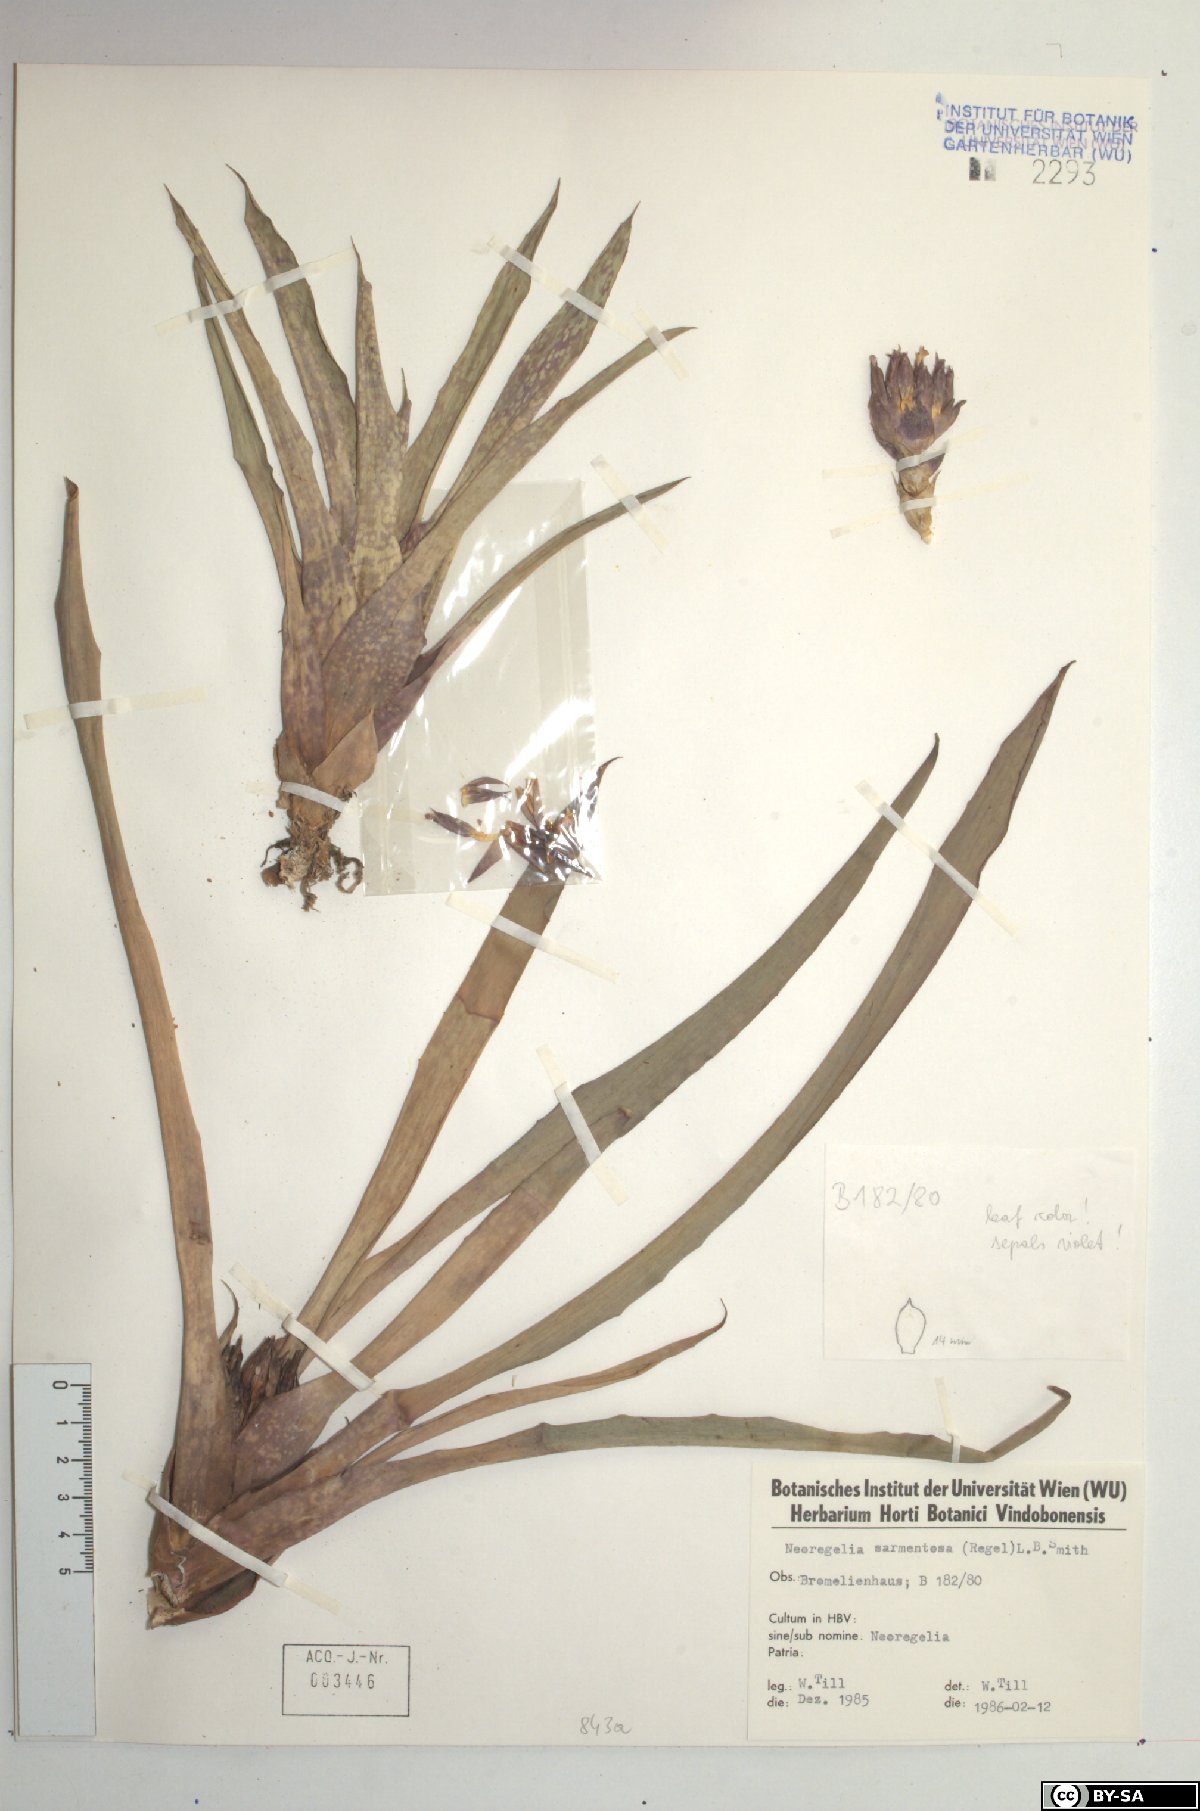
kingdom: Plantae
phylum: Tracheophyta
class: Liliopsida
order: Poales
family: Bromeliaceae
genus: Neoregelia
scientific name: Neoregelia sarmentosa
